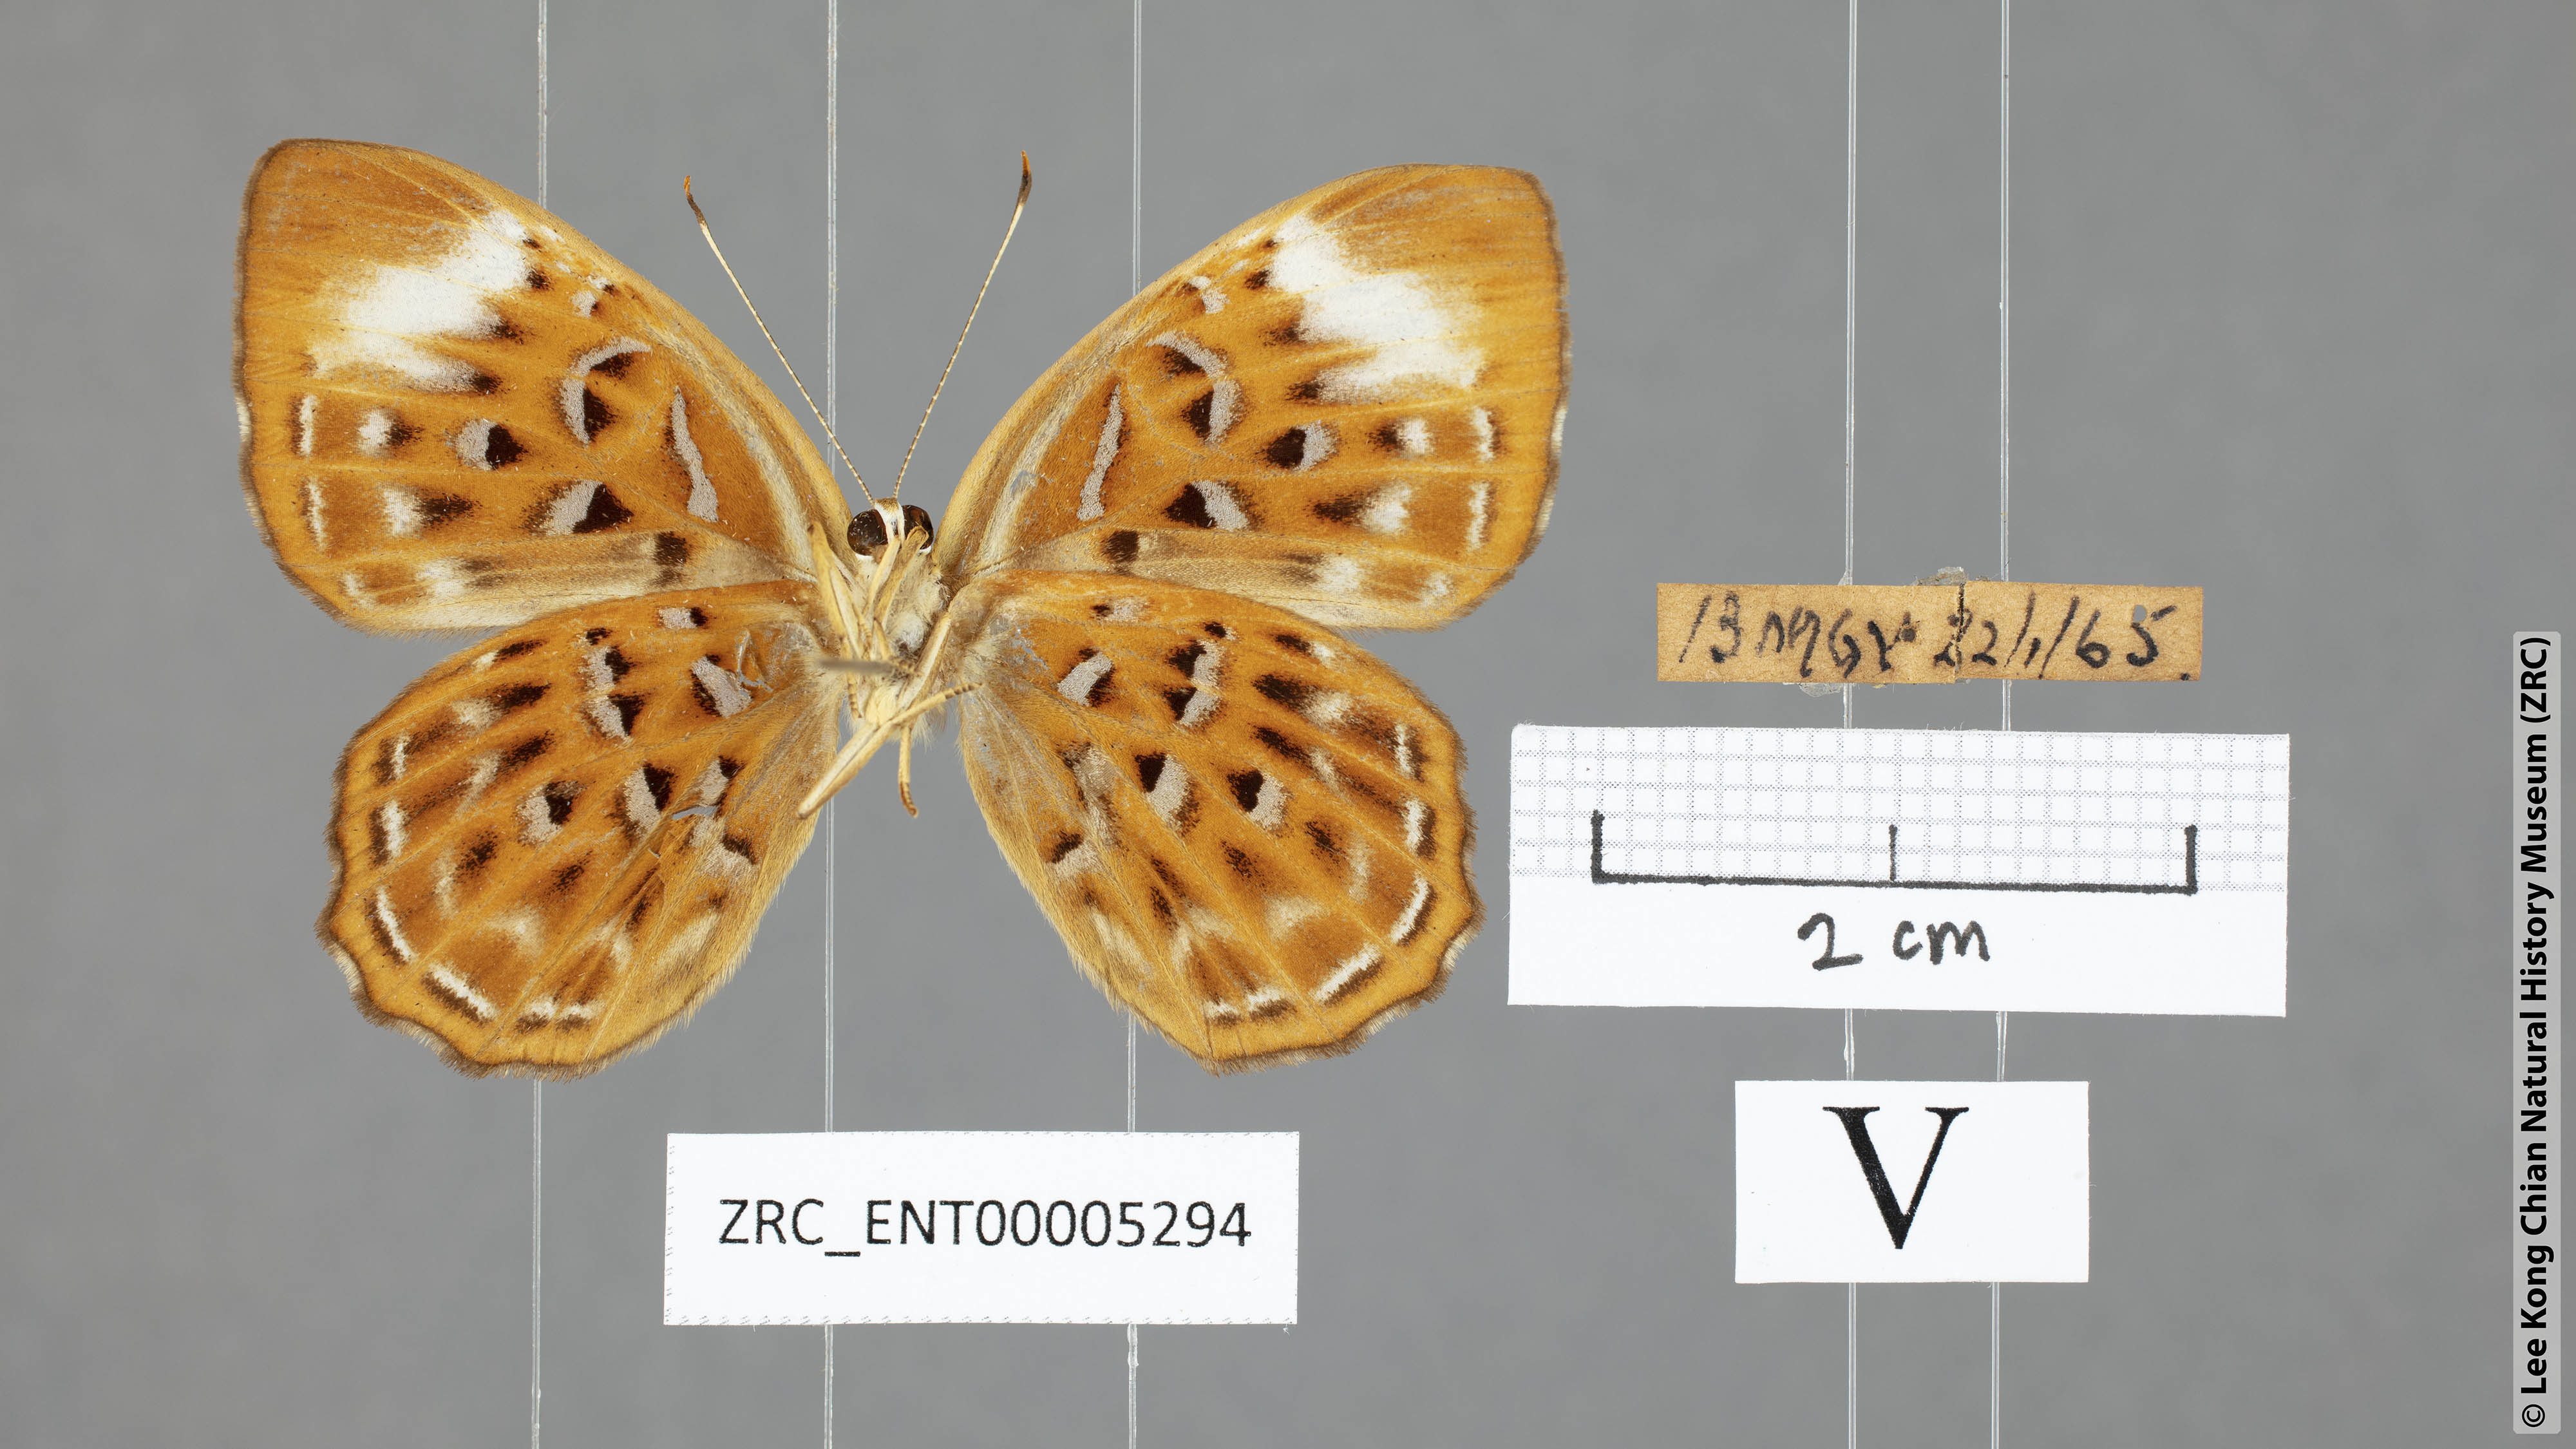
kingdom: Animalia
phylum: Arthropoda
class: Insecta
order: Lepidoptera
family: Riodinidae
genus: Laxita
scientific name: Laxita thuisto
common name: Lesser harlequin
